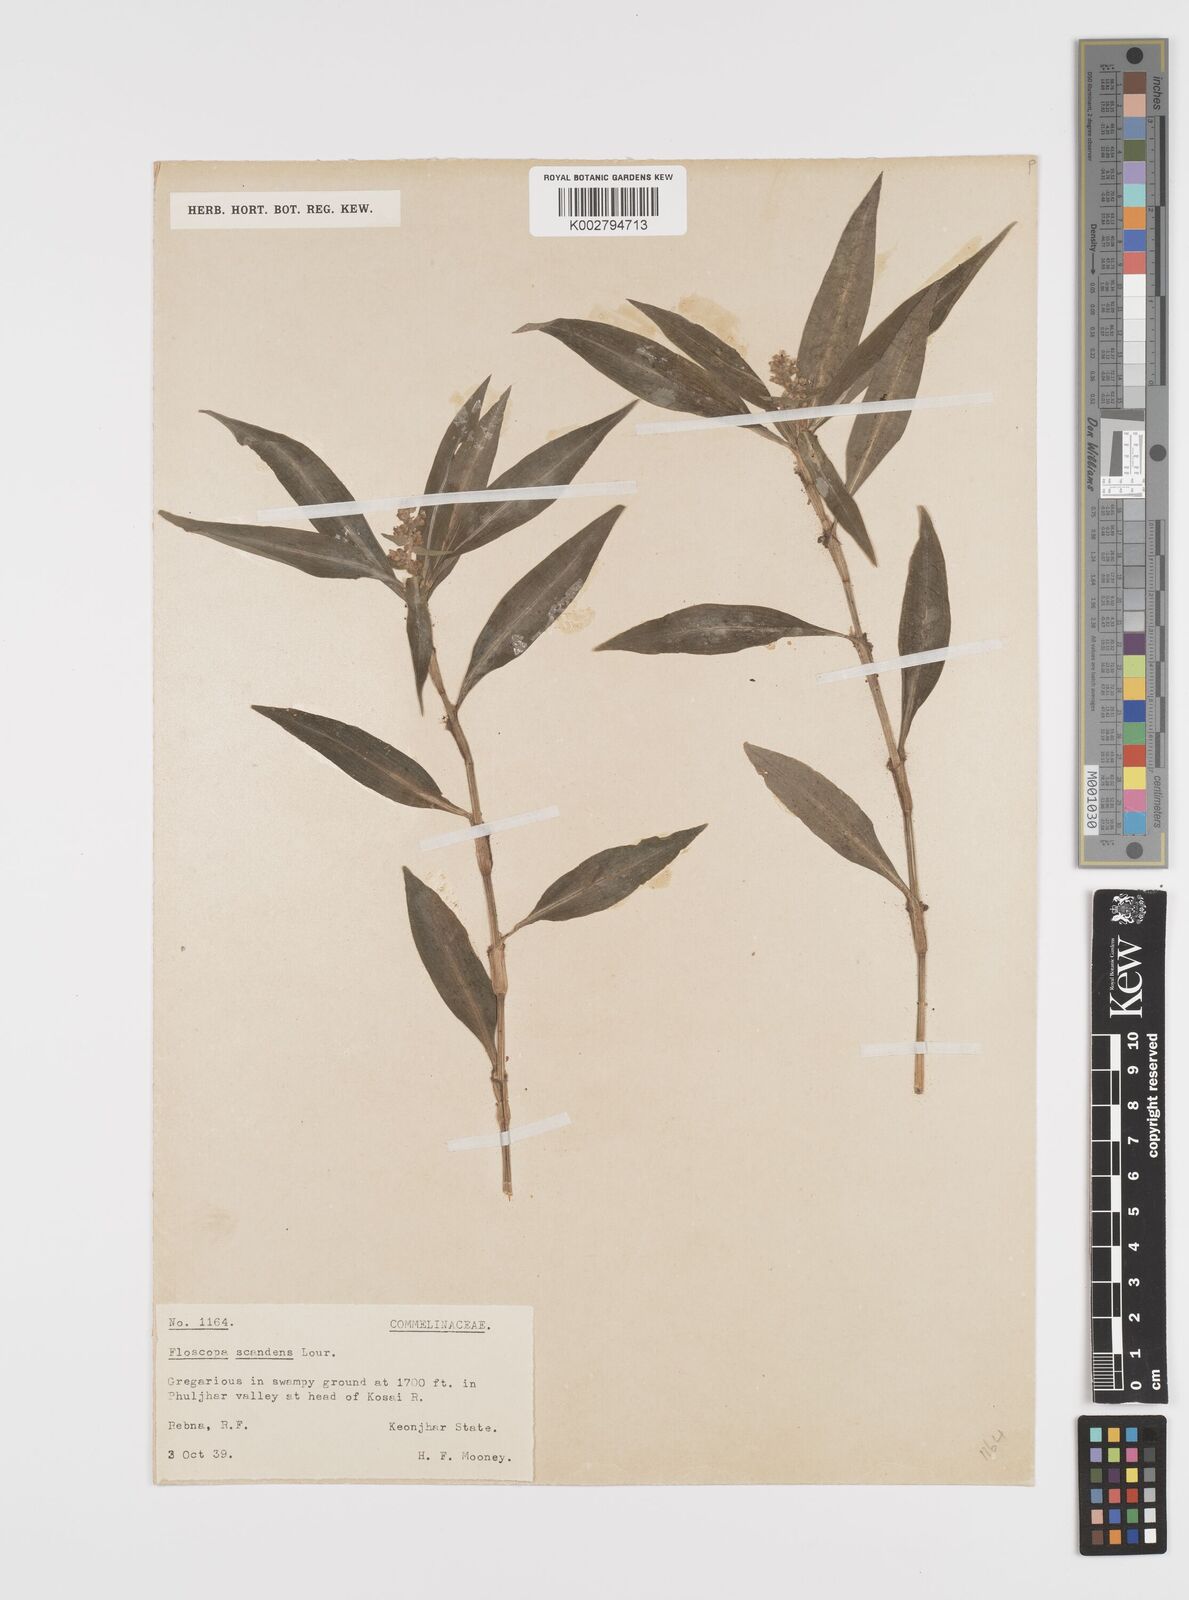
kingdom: Plantae
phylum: Tracheophyta
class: Liliopsida
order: Commelinales
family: Commelinaceae
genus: Floscopa
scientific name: Floscopa scandens
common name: Climbing flower cup
